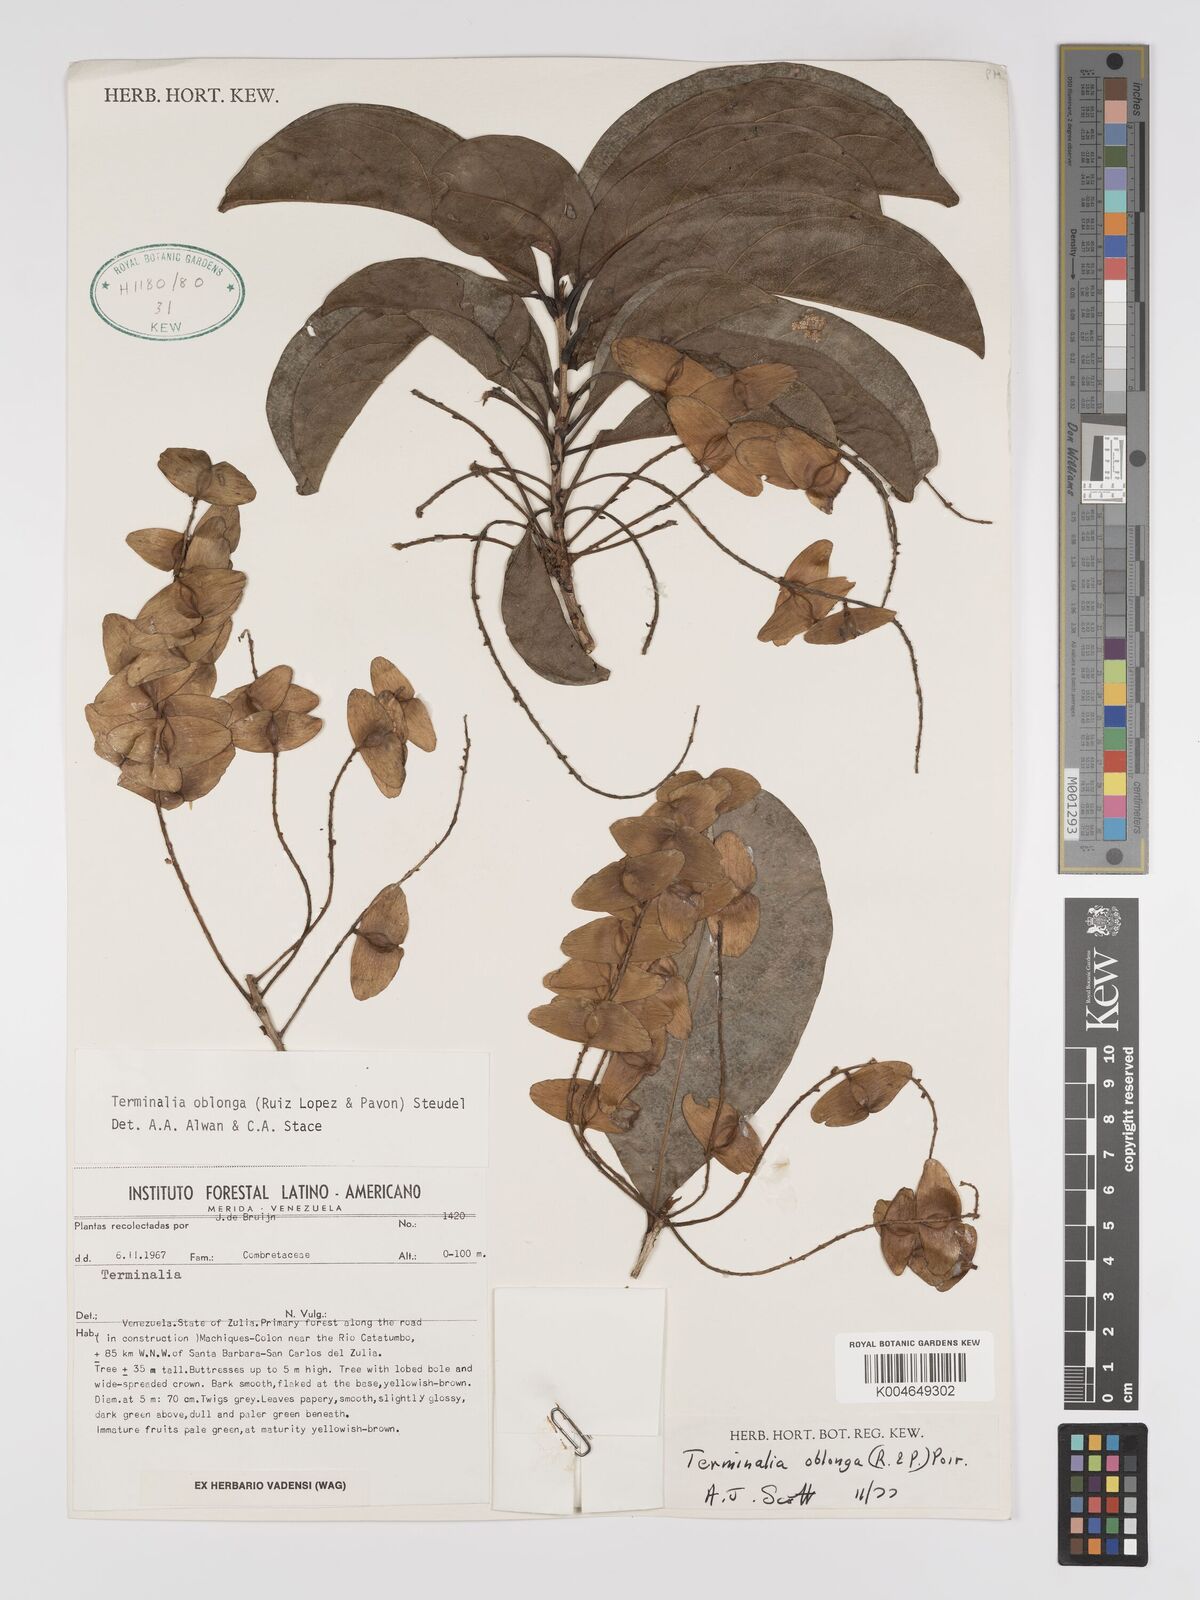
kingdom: Plantae
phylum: Tracheophyta
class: Magnoliopsida
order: Myrtales
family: Combretaceae
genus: Terminalia
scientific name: Terminalia oblonga
